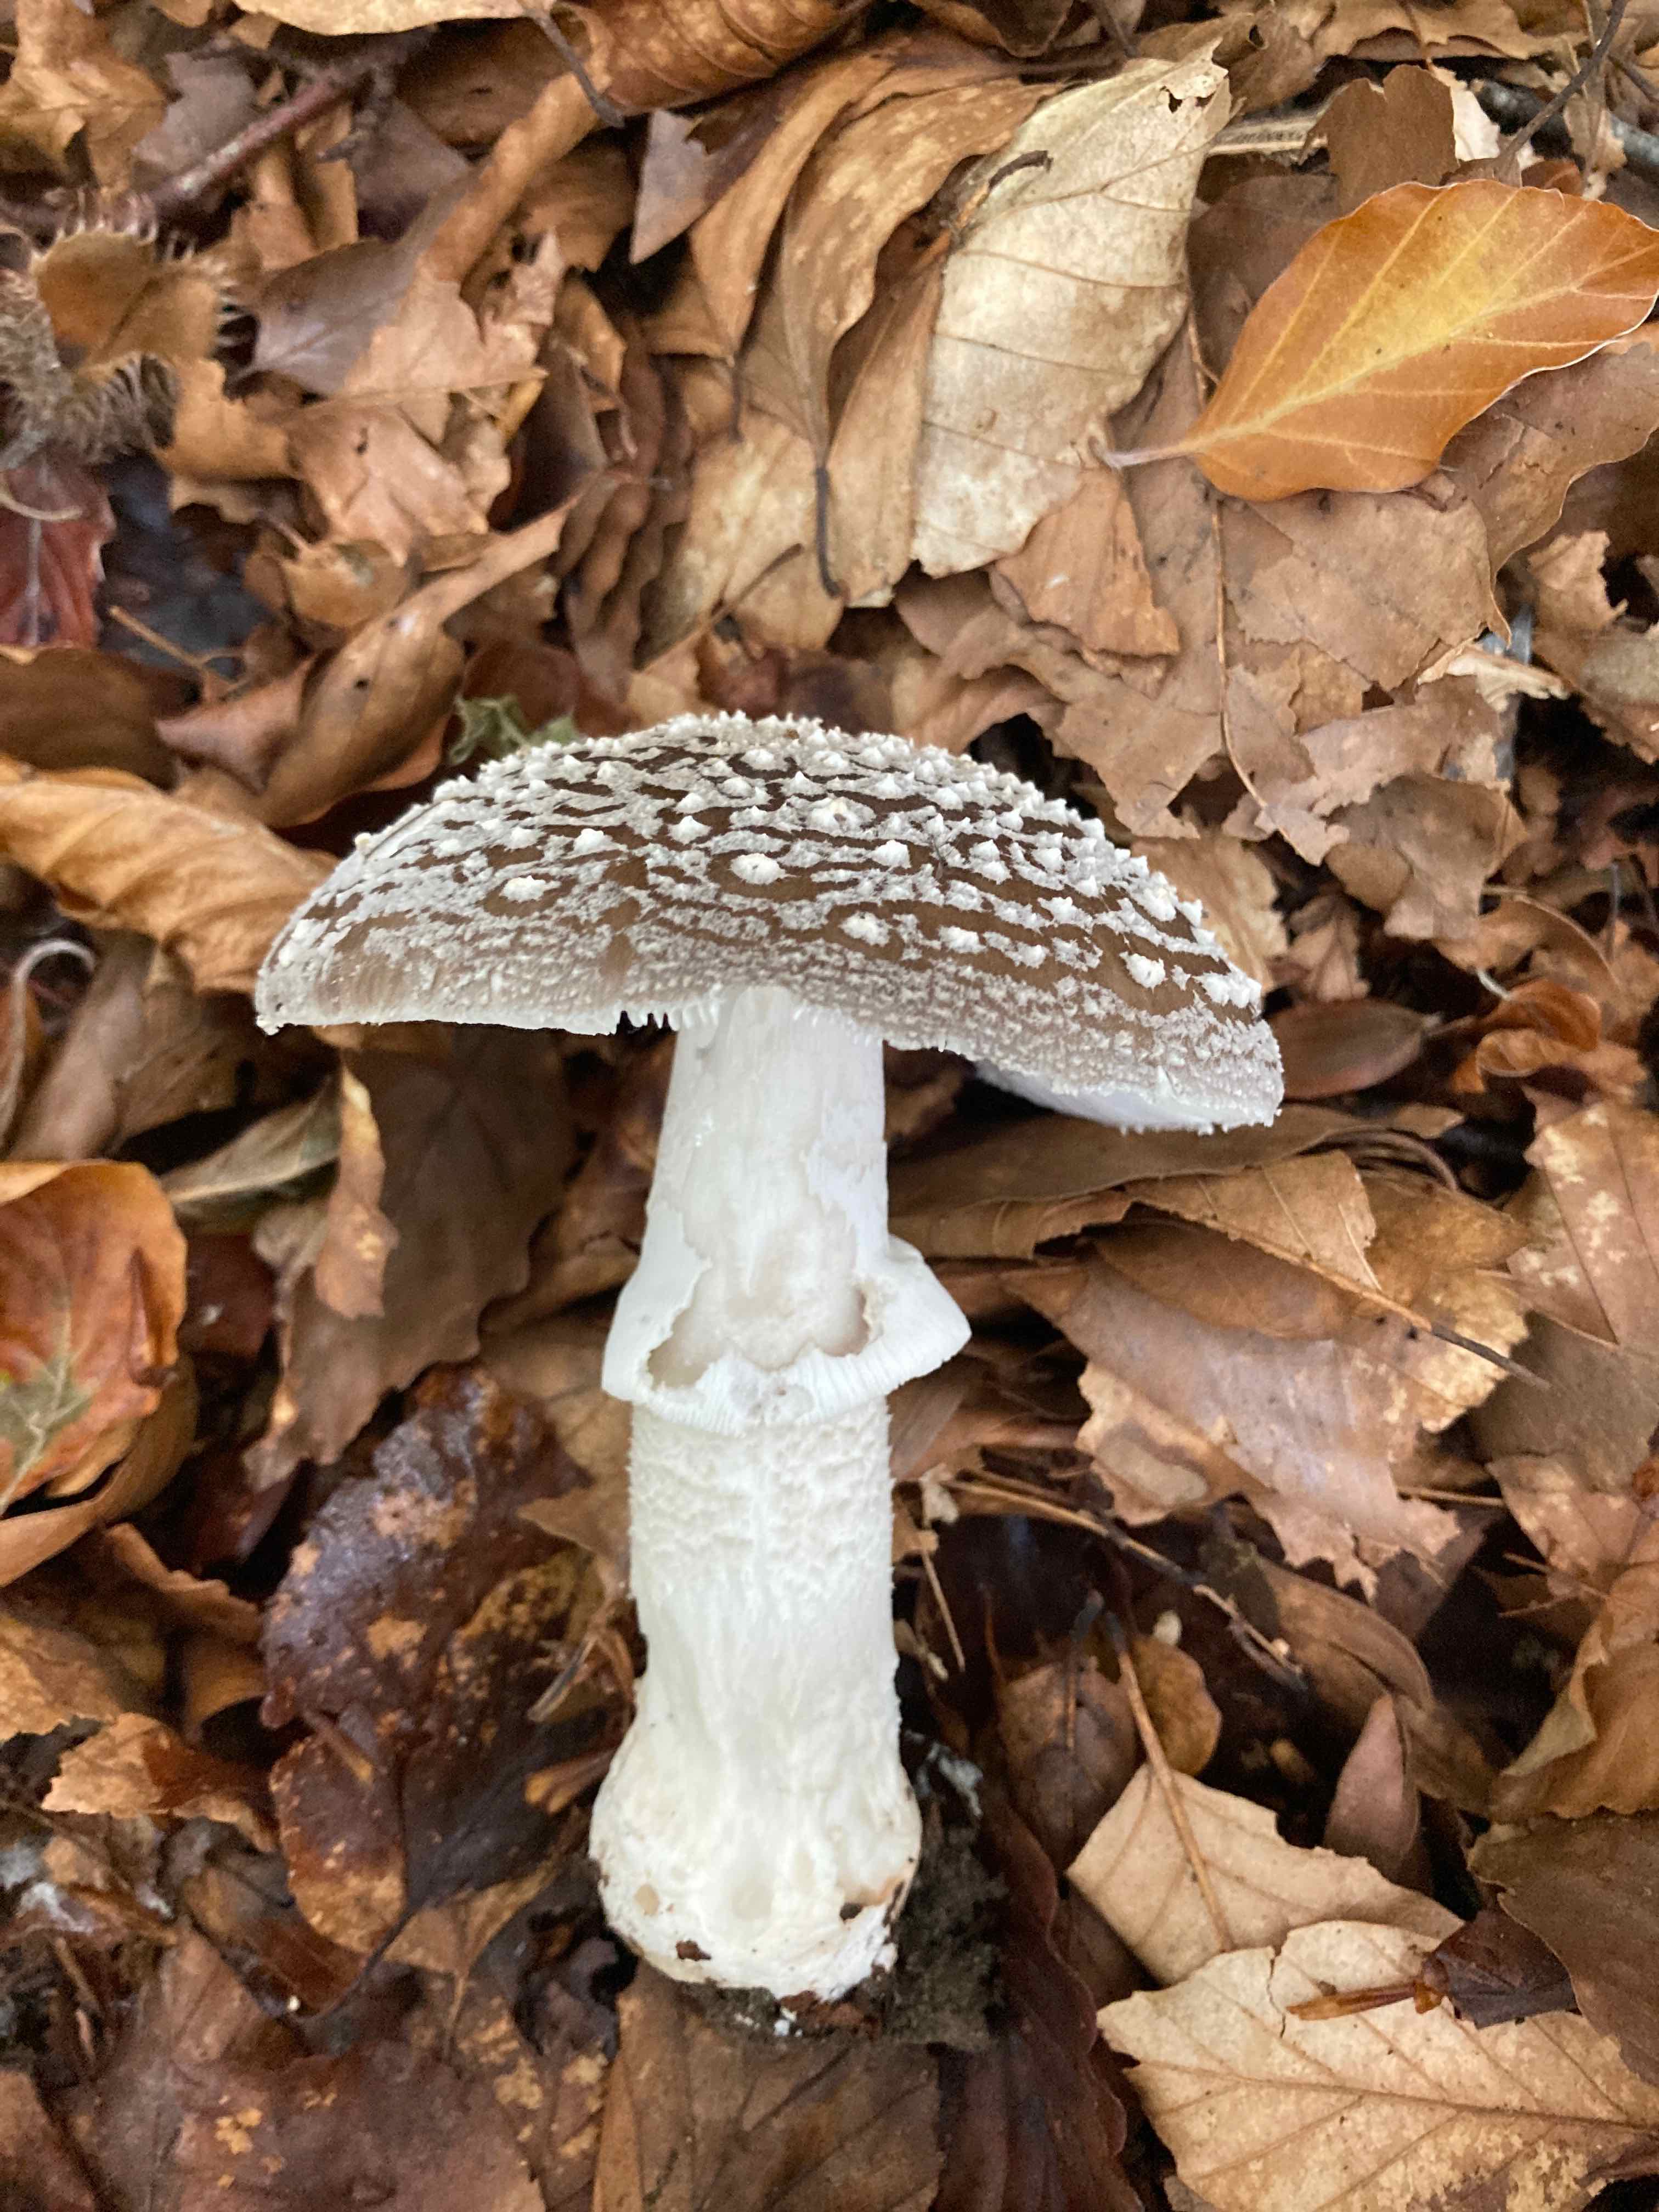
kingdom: Fungi
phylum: Basidiomycota
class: Agaricomycetes
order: Agaricales
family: Amanitaceae
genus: Amanita
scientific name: Amanita
